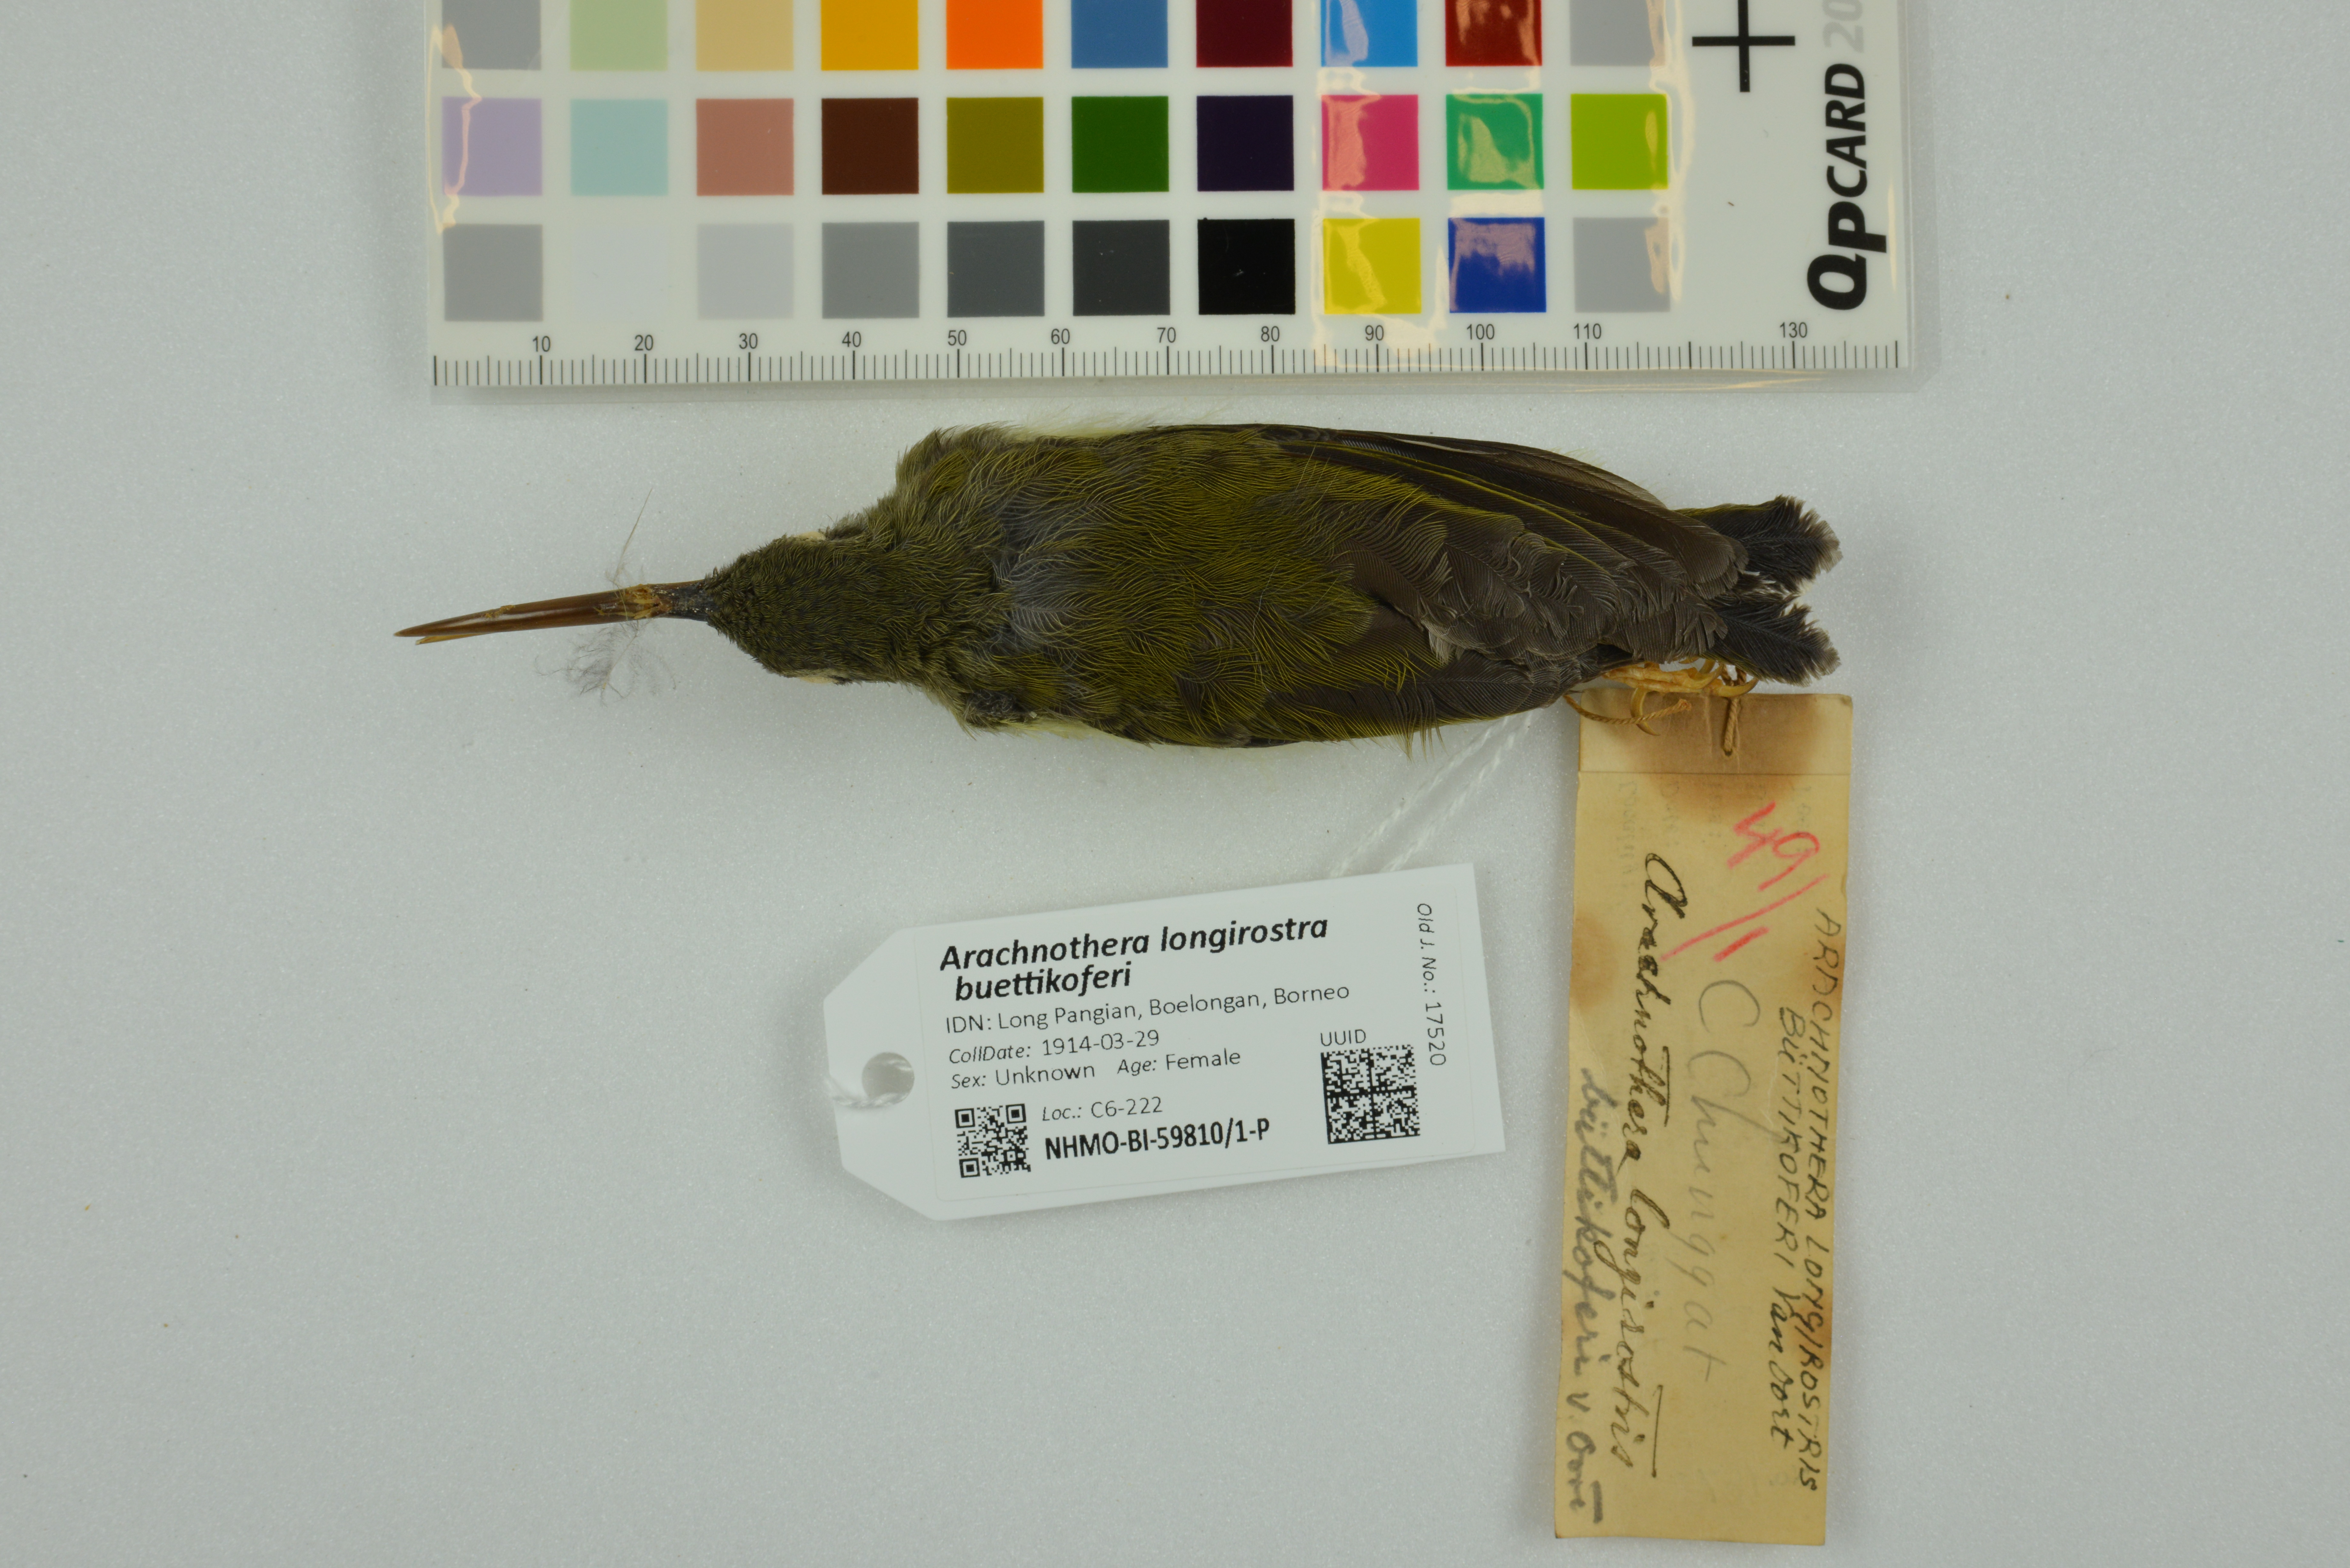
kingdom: Animalia
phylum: Chordata
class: Aves
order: Passeriformes
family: Nectariniidae
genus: Arachnothera
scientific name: Arachnothera longirostra
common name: Little spiderhunter
